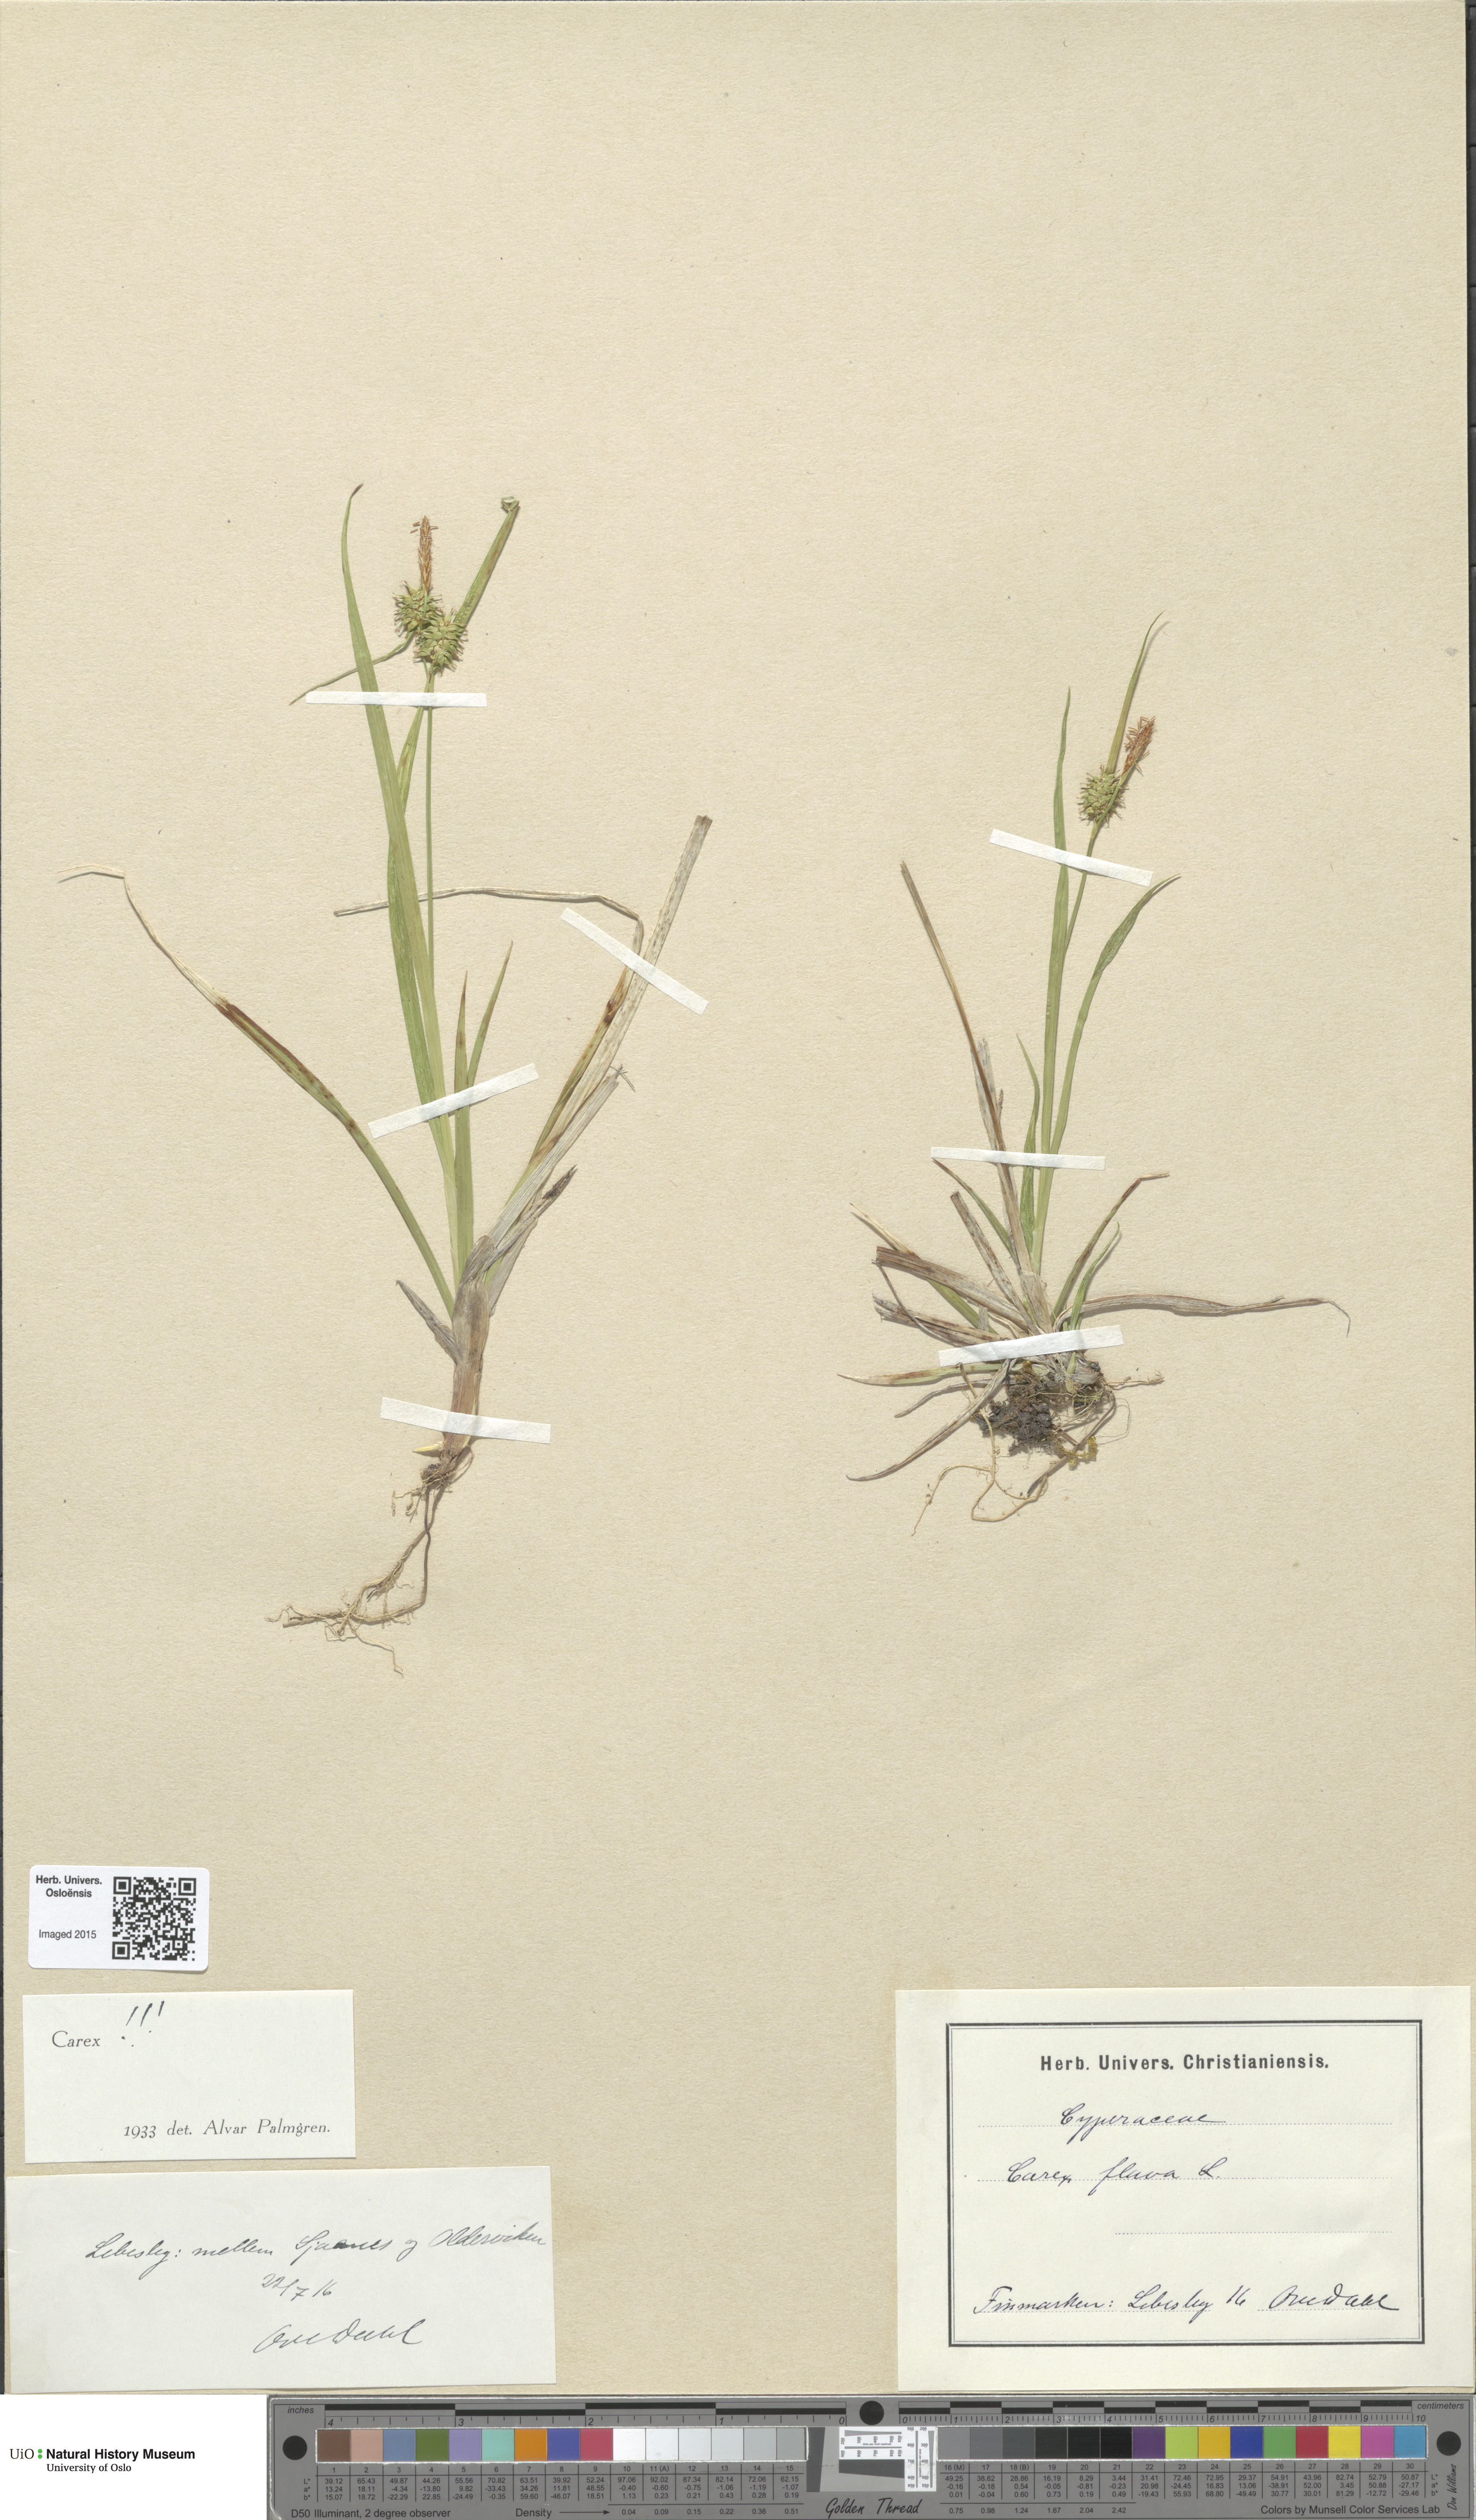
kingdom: Plantae
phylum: Tracheophyta
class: Liliopsida
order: Poales
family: Cyperaceae
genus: Carex
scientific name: Carex flava
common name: Large yellow-sedge
